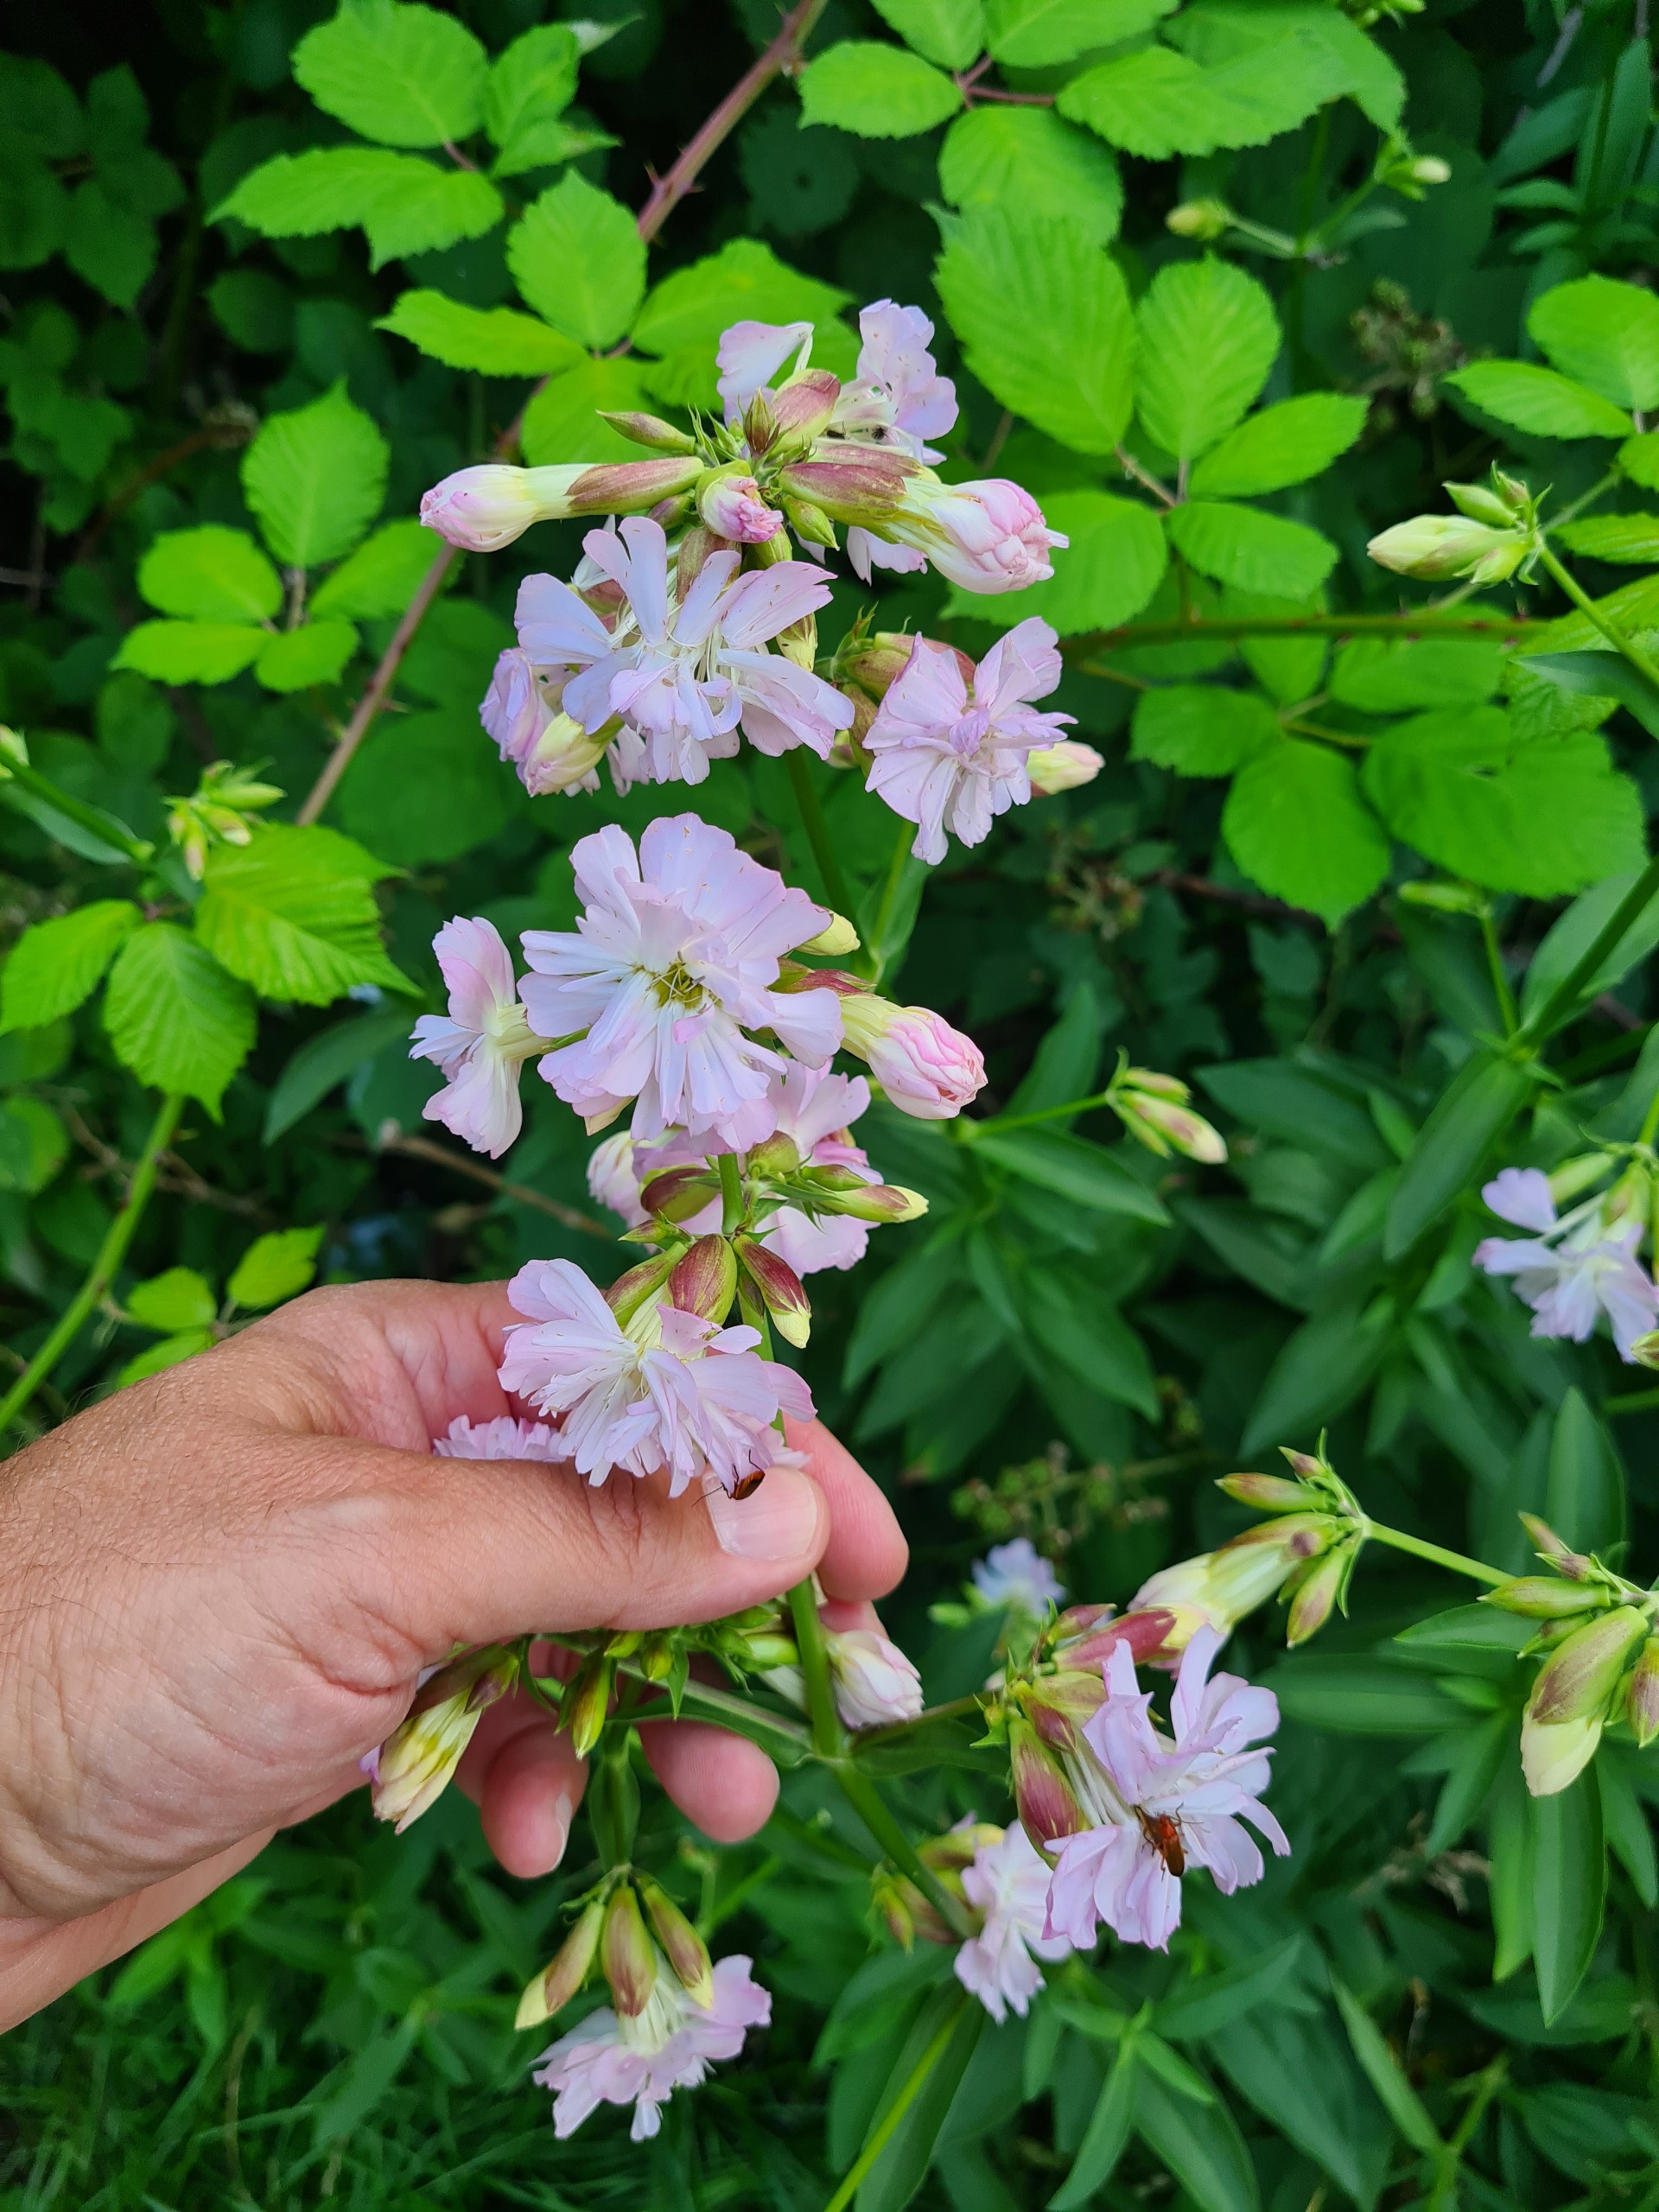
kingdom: Plantae
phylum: Tracheophyta
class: Magnoliopsida
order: Caryophyllales
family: Caryophyllaceae
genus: Saponaria
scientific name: Saponaria officinalis
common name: Sæbeurt
